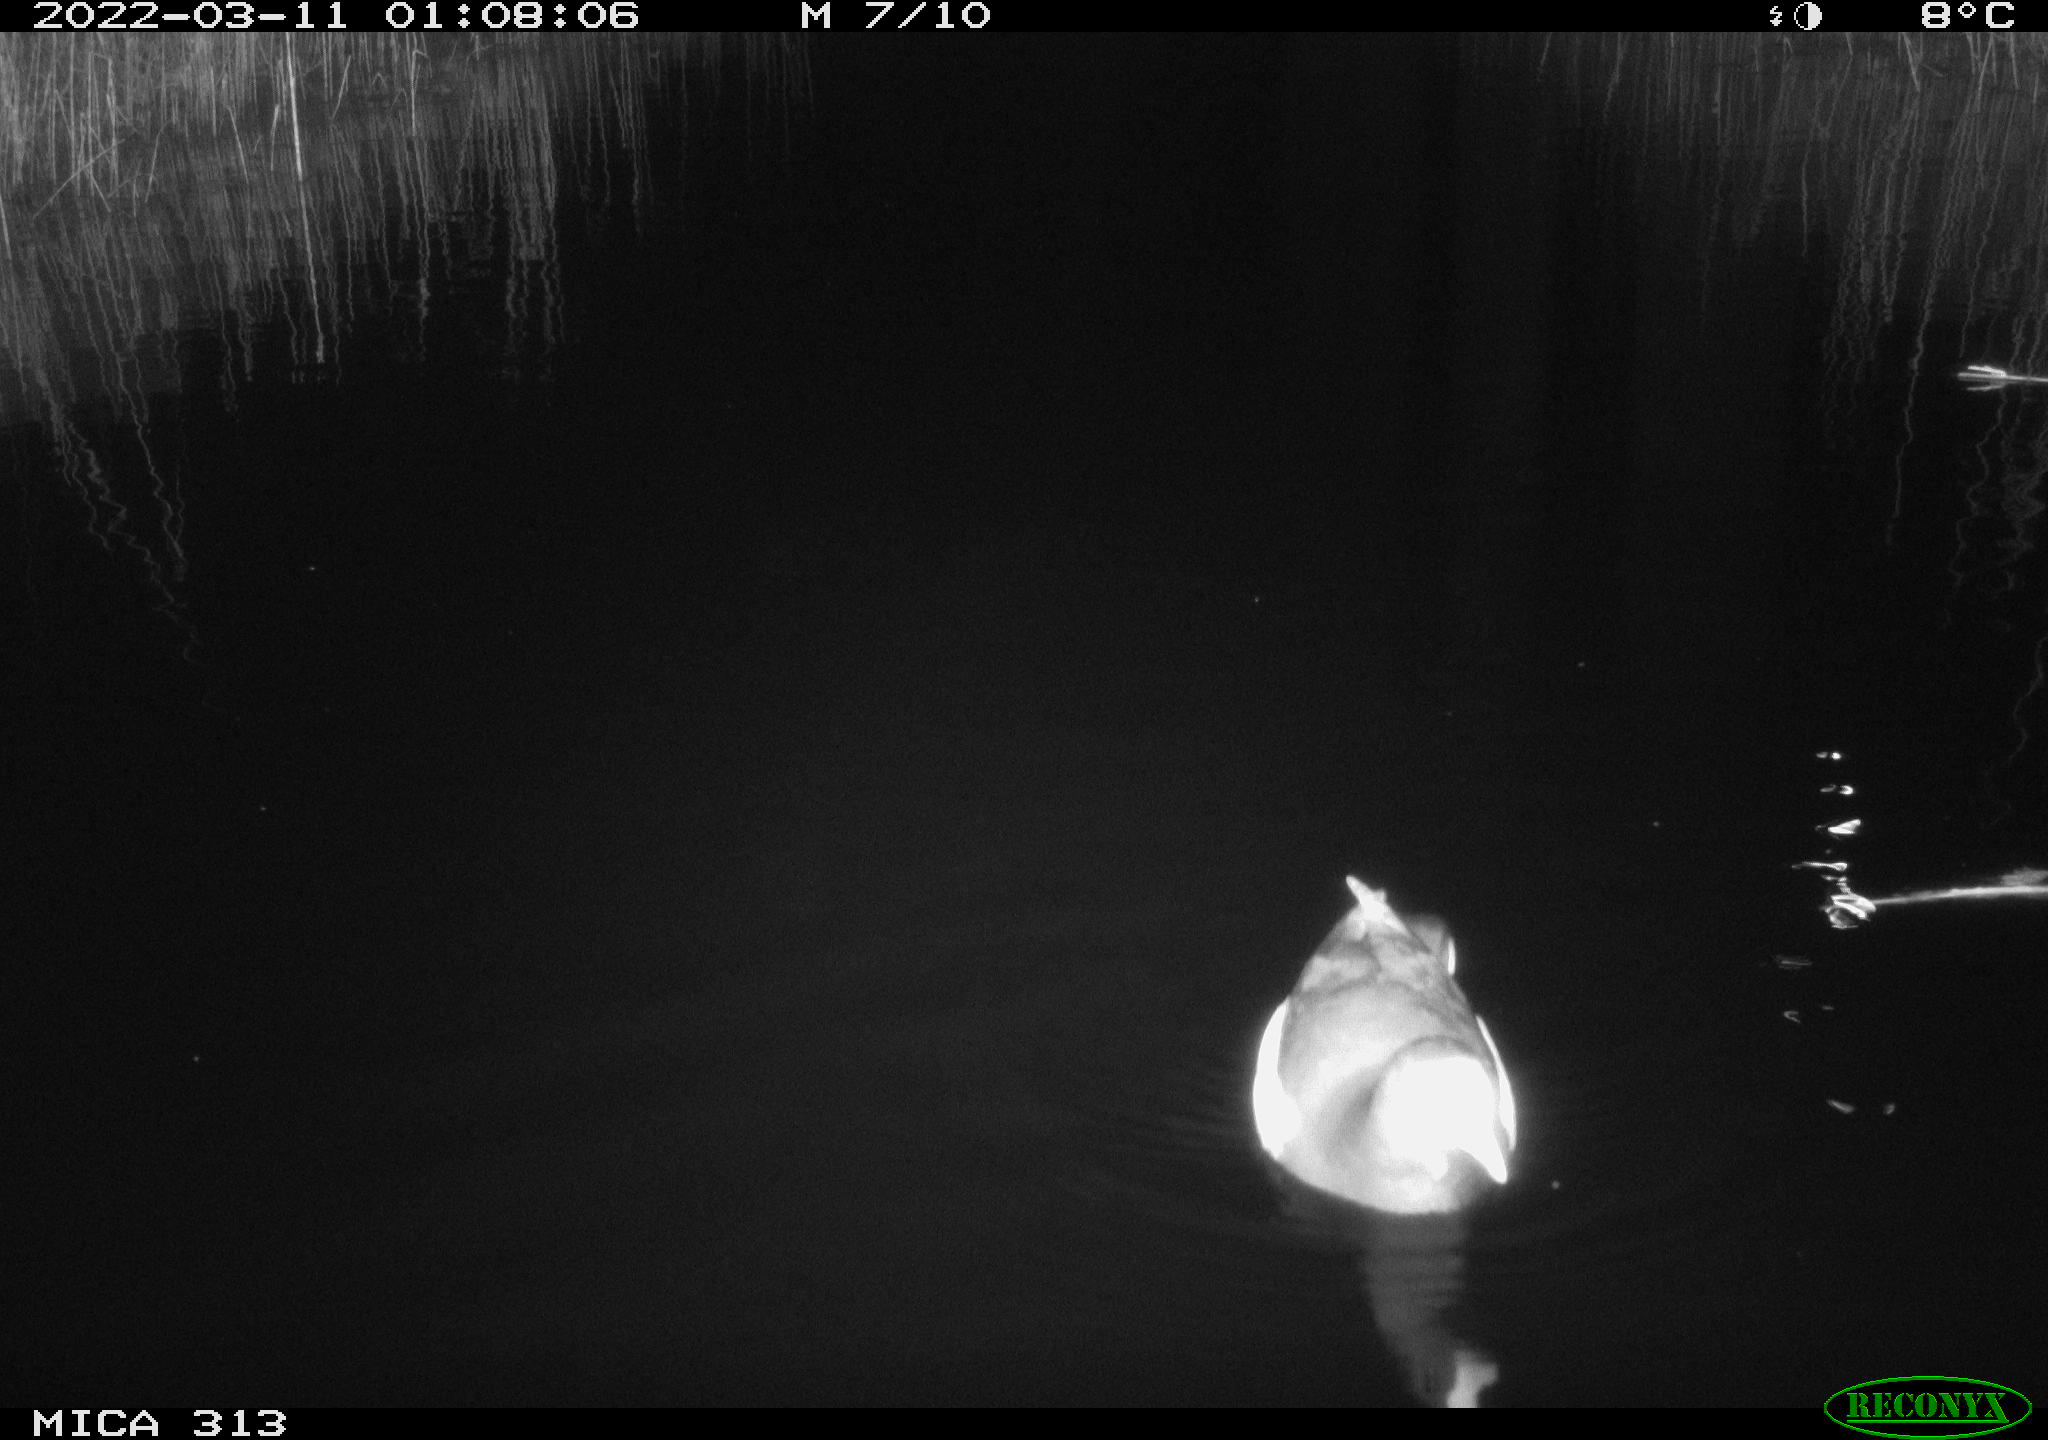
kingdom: Animalia
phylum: Chordata
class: Aves
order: Gruiformes
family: Rallidae
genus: Gallinula
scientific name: Gallinula chloropus
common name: Common moorhen
